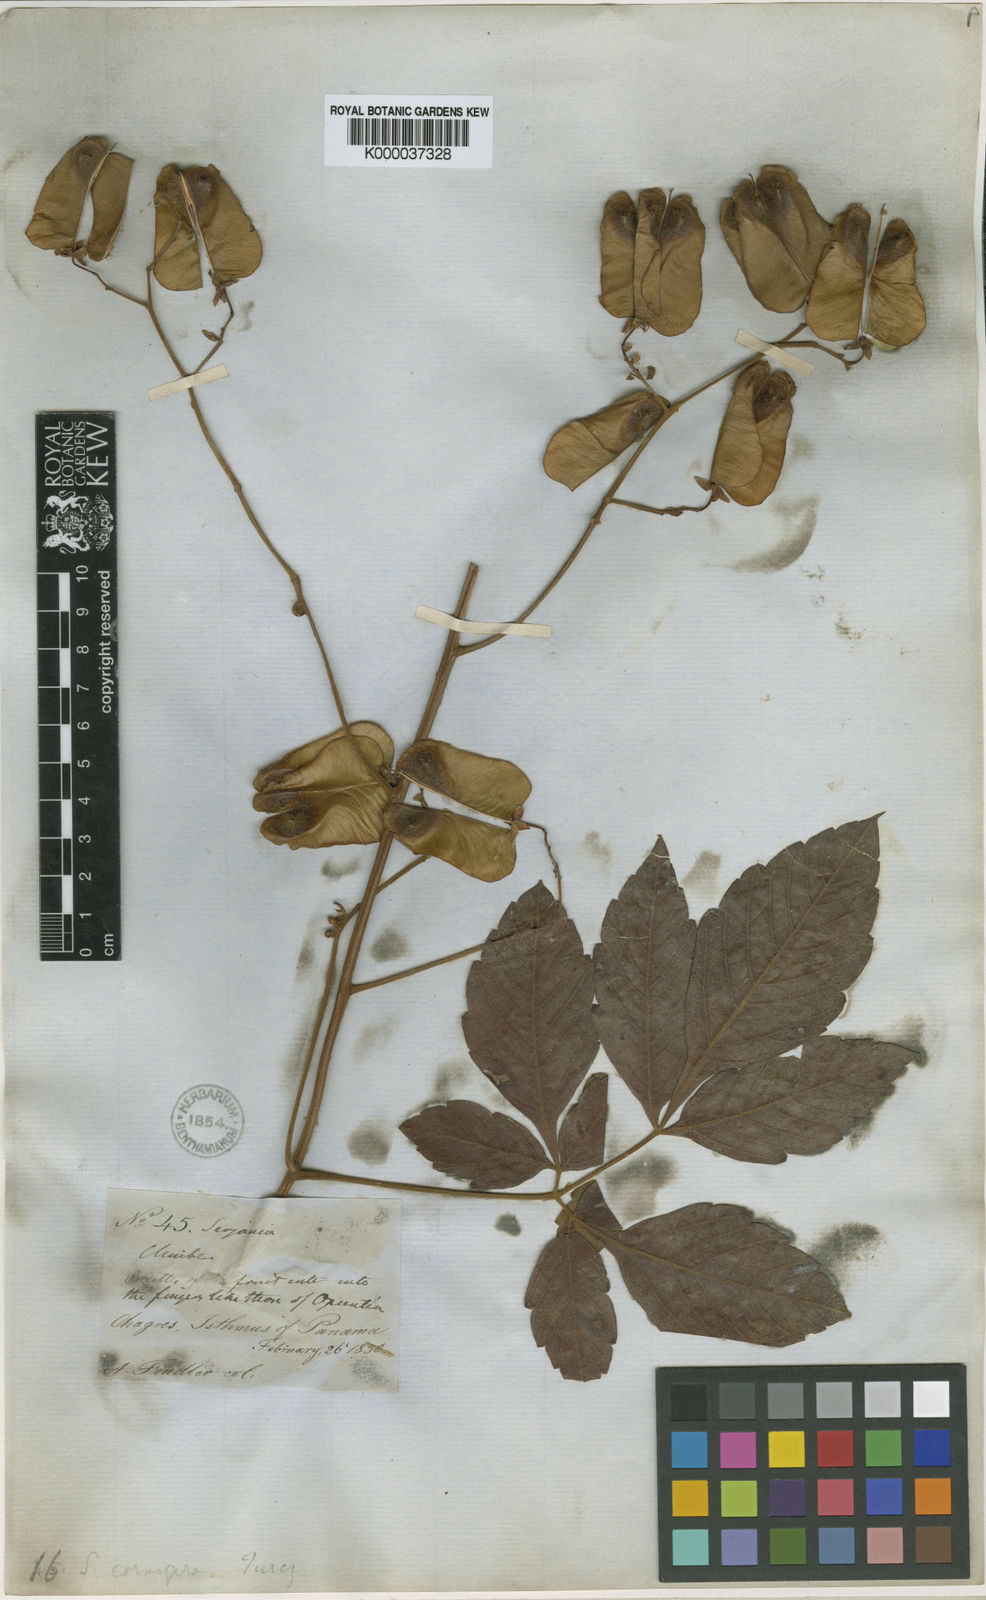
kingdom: Plantae
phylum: Tracheophyta
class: Magnoliopsida
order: Sapindales
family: Sapindaceae
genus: Serjania
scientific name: Serjania cornigera
